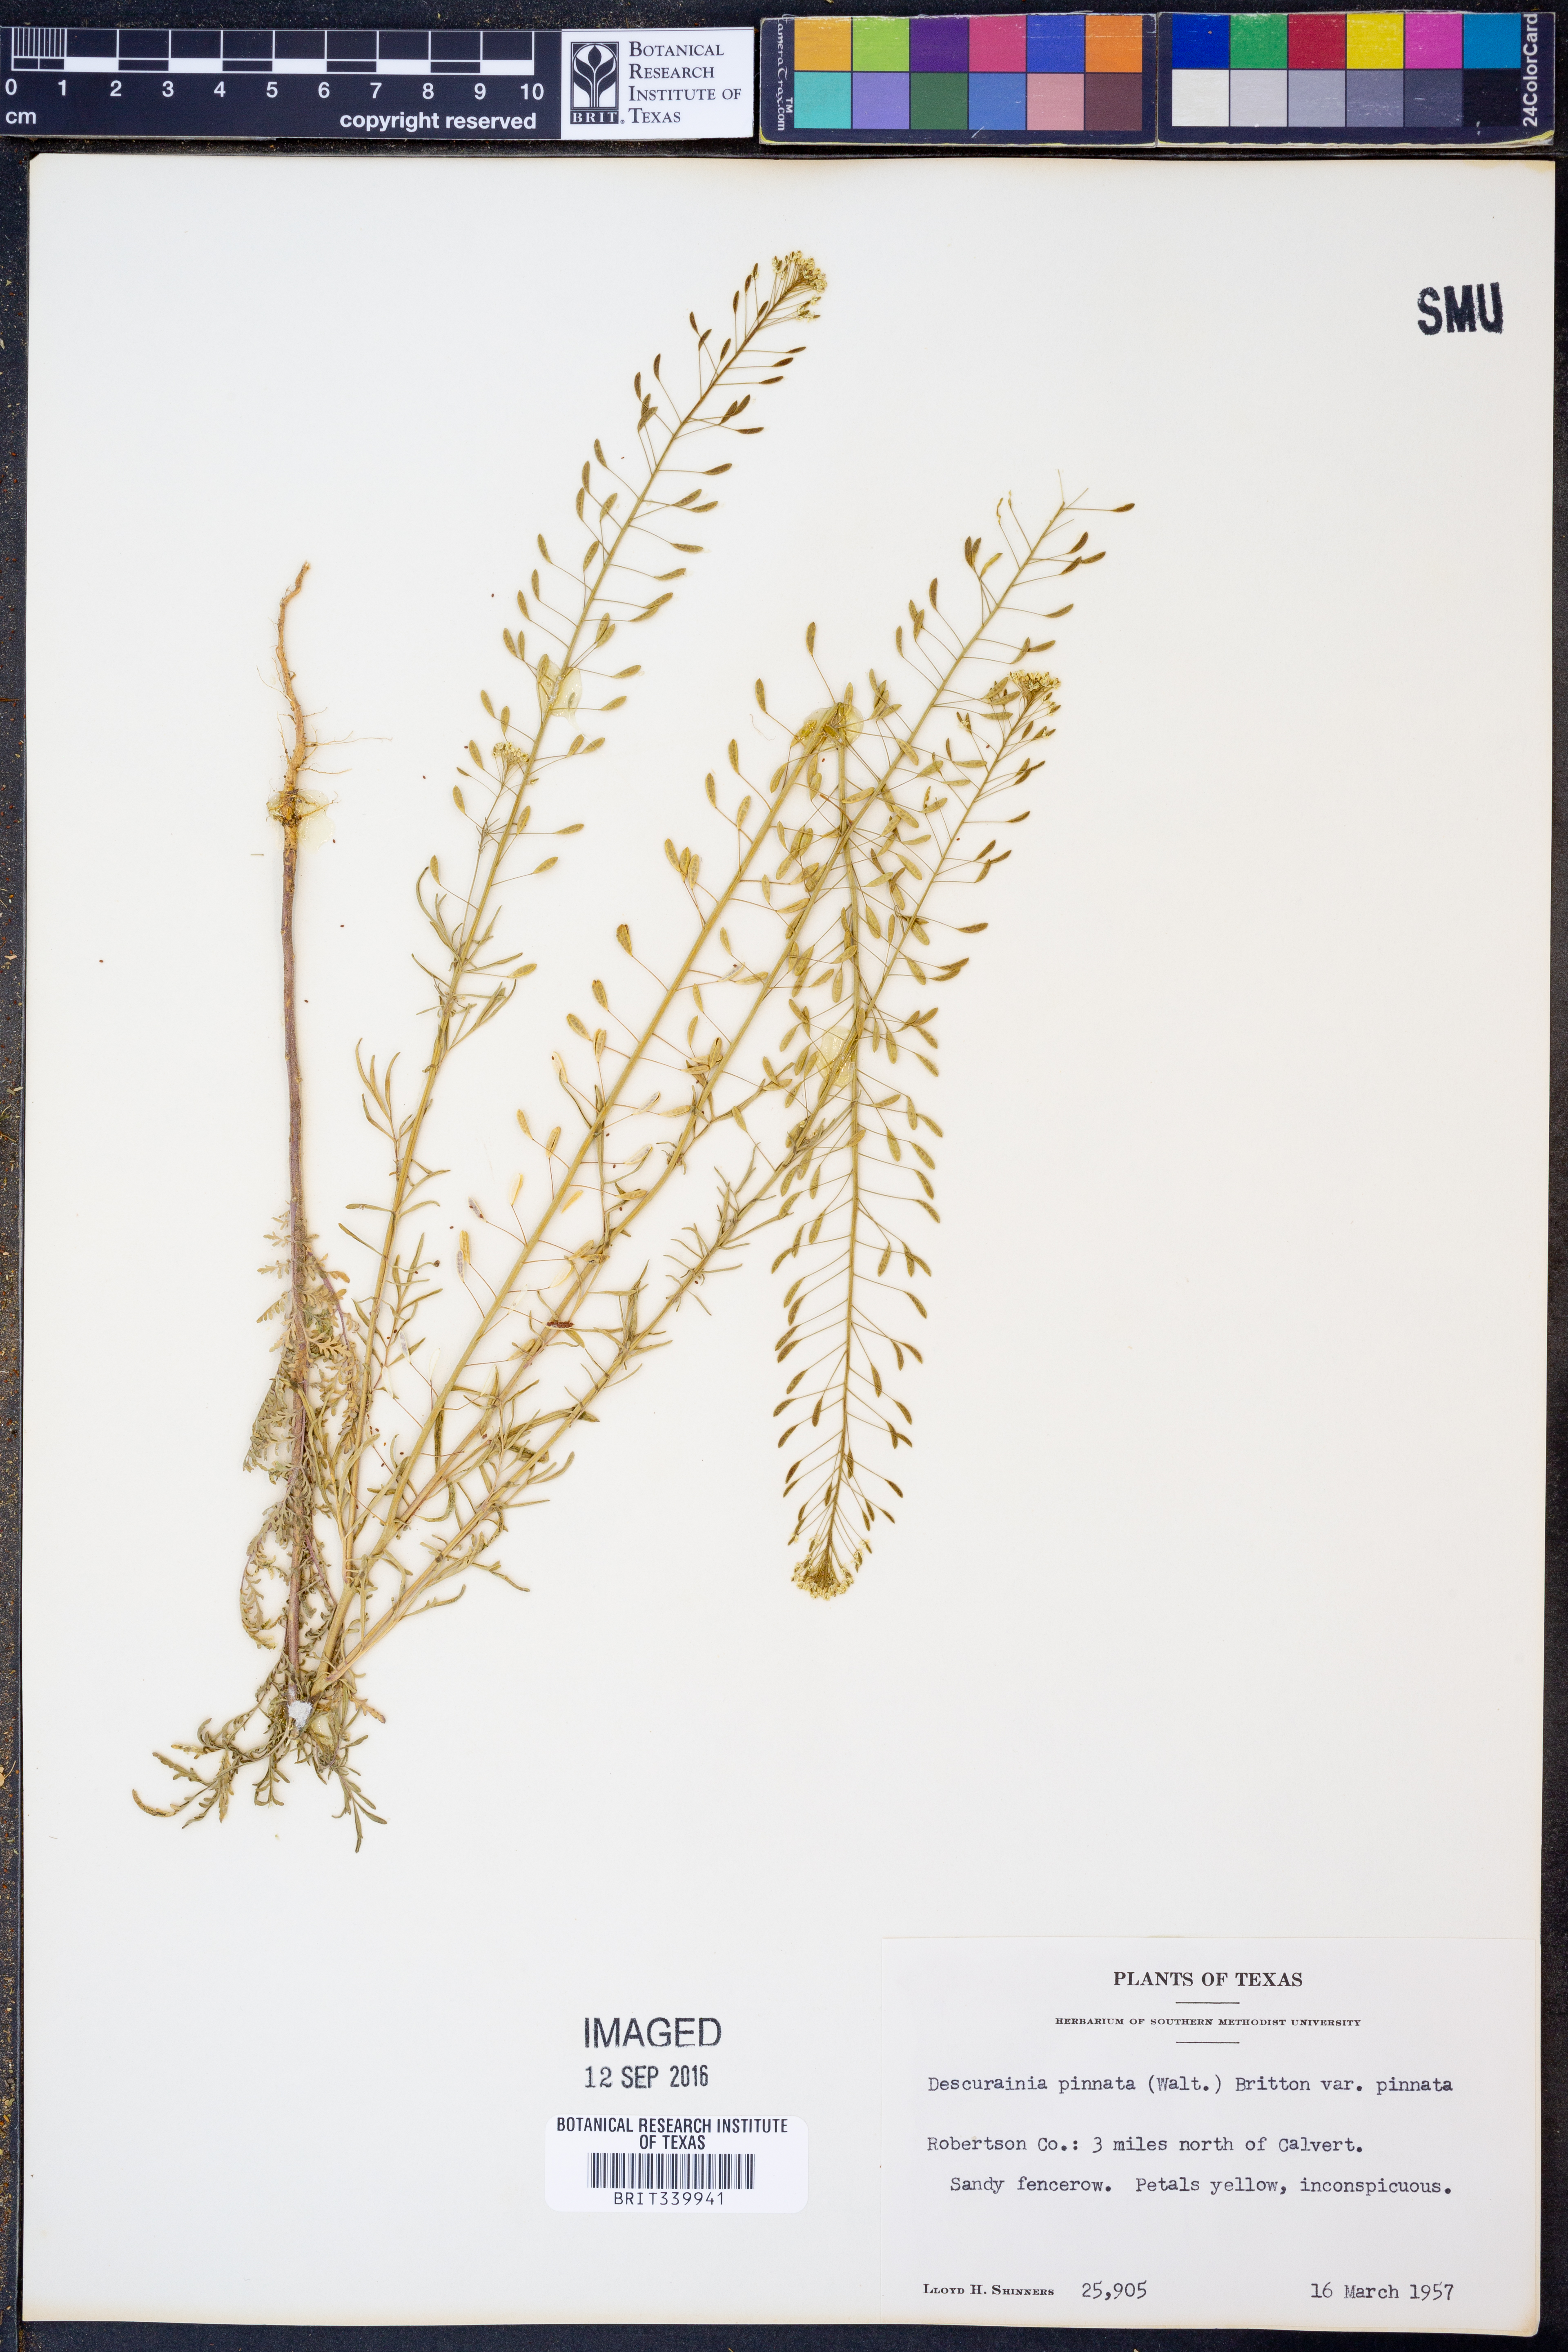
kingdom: Plantae
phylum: Tracheophyta
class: Magnoliopsida
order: Brassicales
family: Brassicaceae
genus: Descurainia
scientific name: Descurainia pinnata
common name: Western tansy mustard
